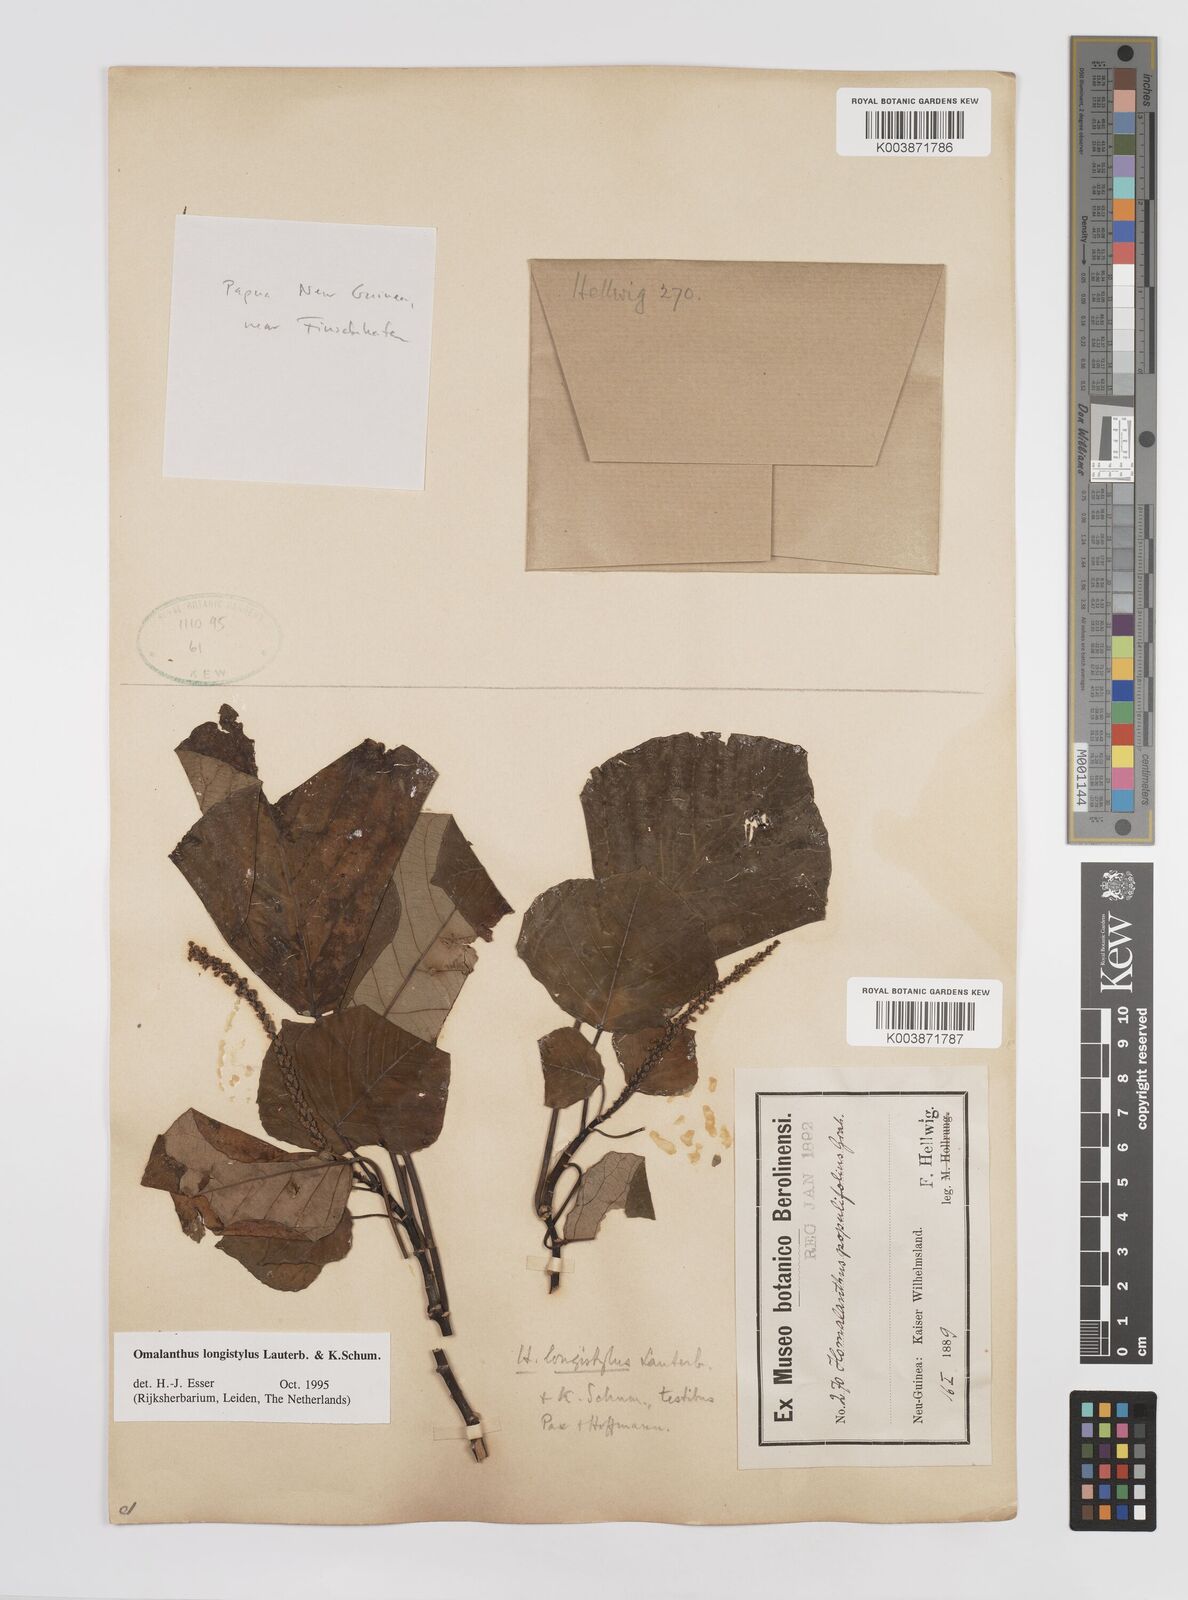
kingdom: Plantae
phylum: Tracheophyta
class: Magnoliopsida
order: Malpighiales
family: Euphorbiaceae
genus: Homalanthus
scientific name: Homalanthus longistylus
